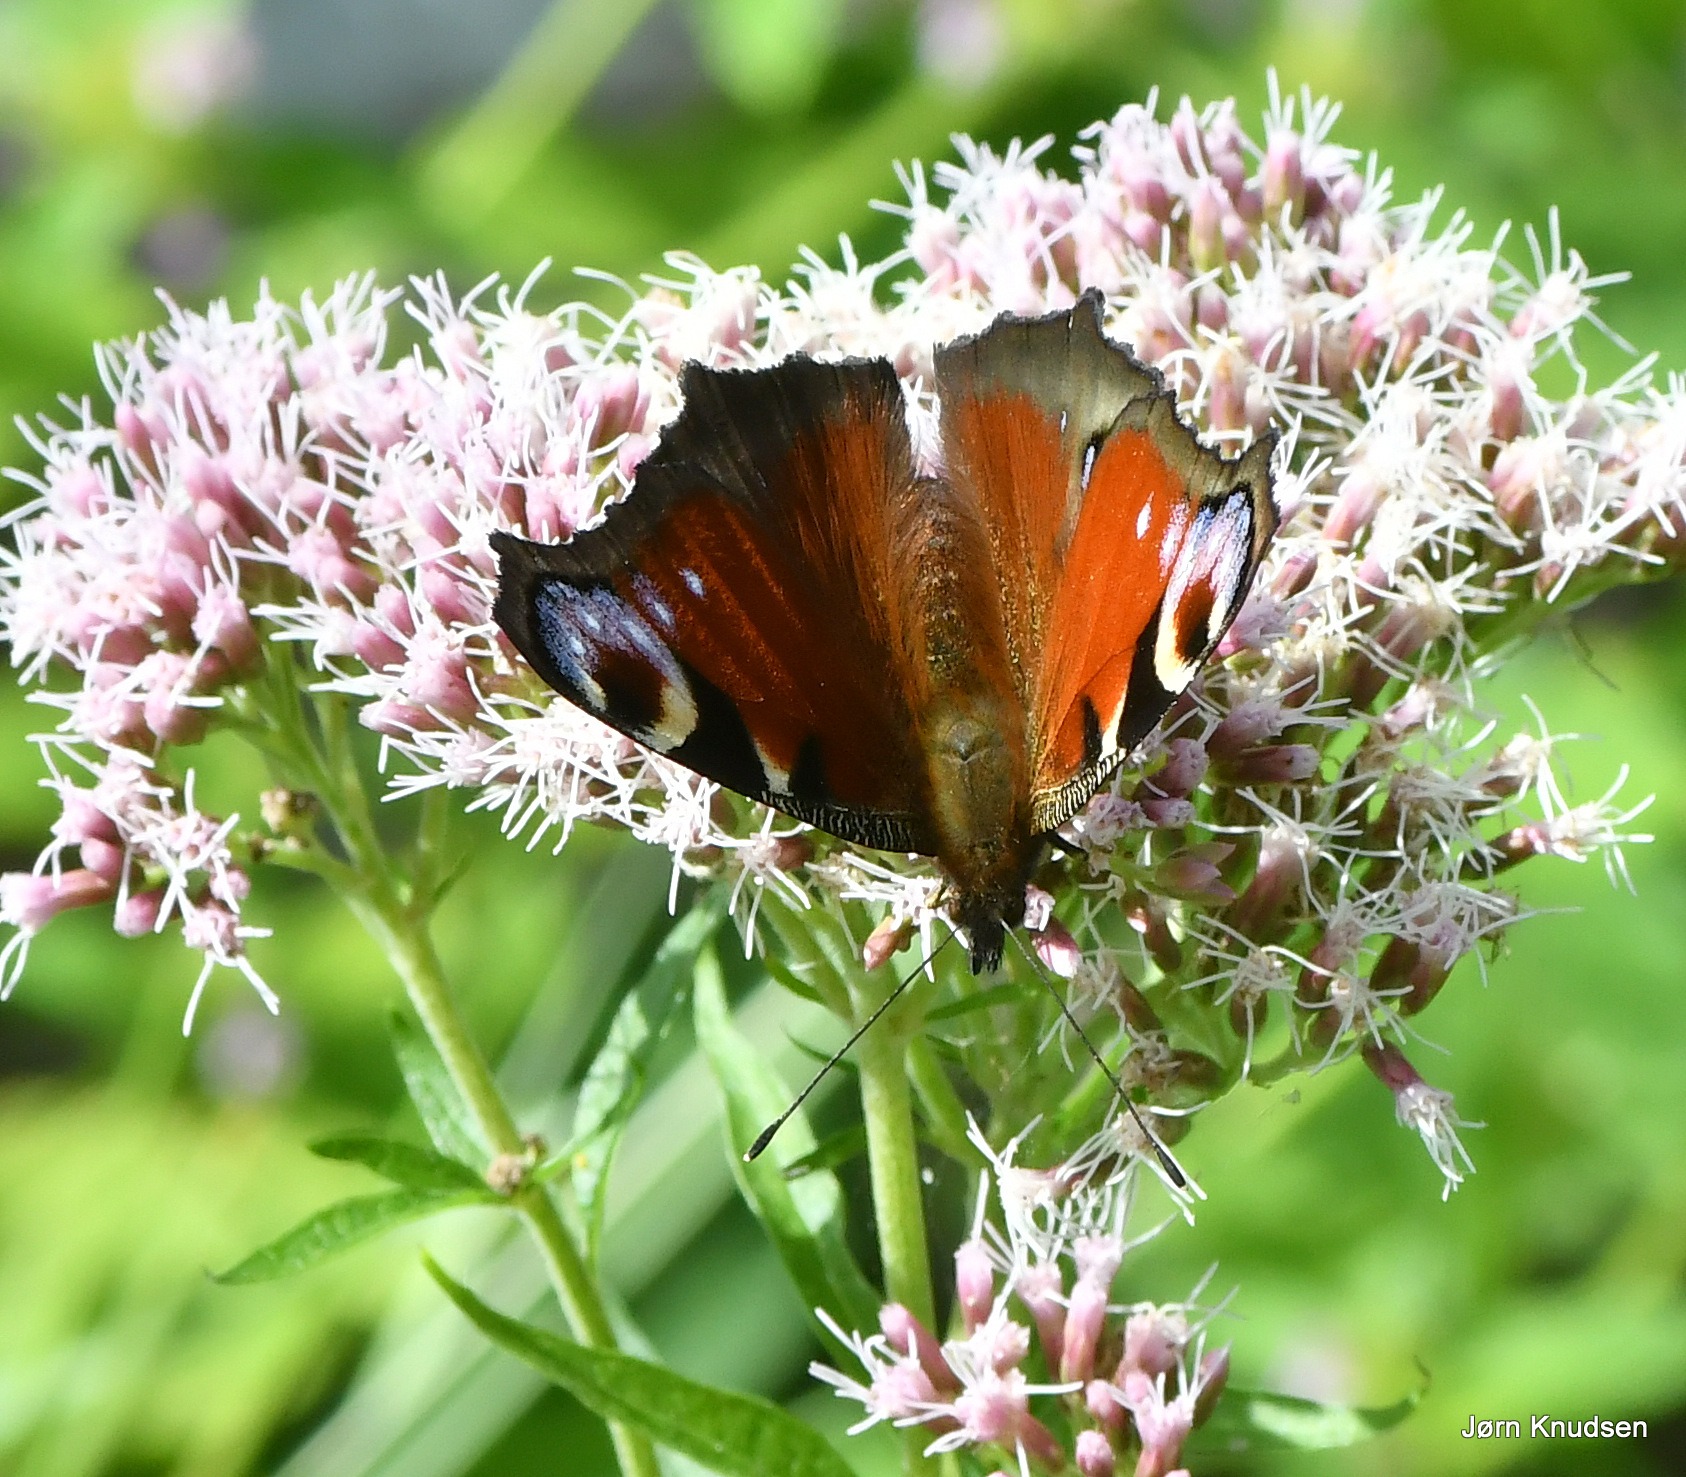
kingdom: Animalia
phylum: Arthropoda
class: Insecta
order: Lepidoptera
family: Nymphalidae
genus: Aglais
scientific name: Aglais io
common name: Dagpåfugleøje
